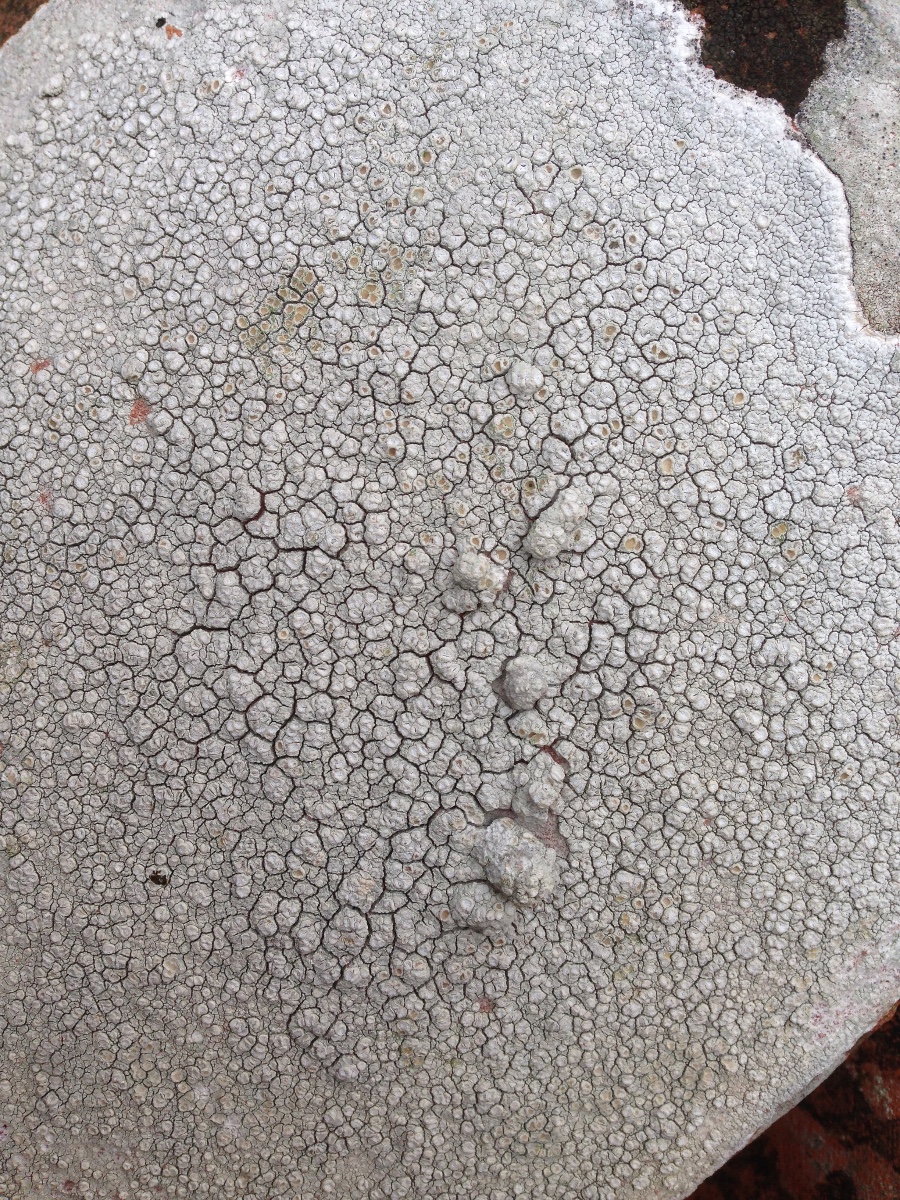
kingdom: Fungi
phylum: Ascomycota
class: Lecanoromycetes
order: Pertusariales
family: Ochrolechiaceae
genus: Ochrolechia
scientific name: Ochrolechia parella
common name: almindelig blegskivelav
